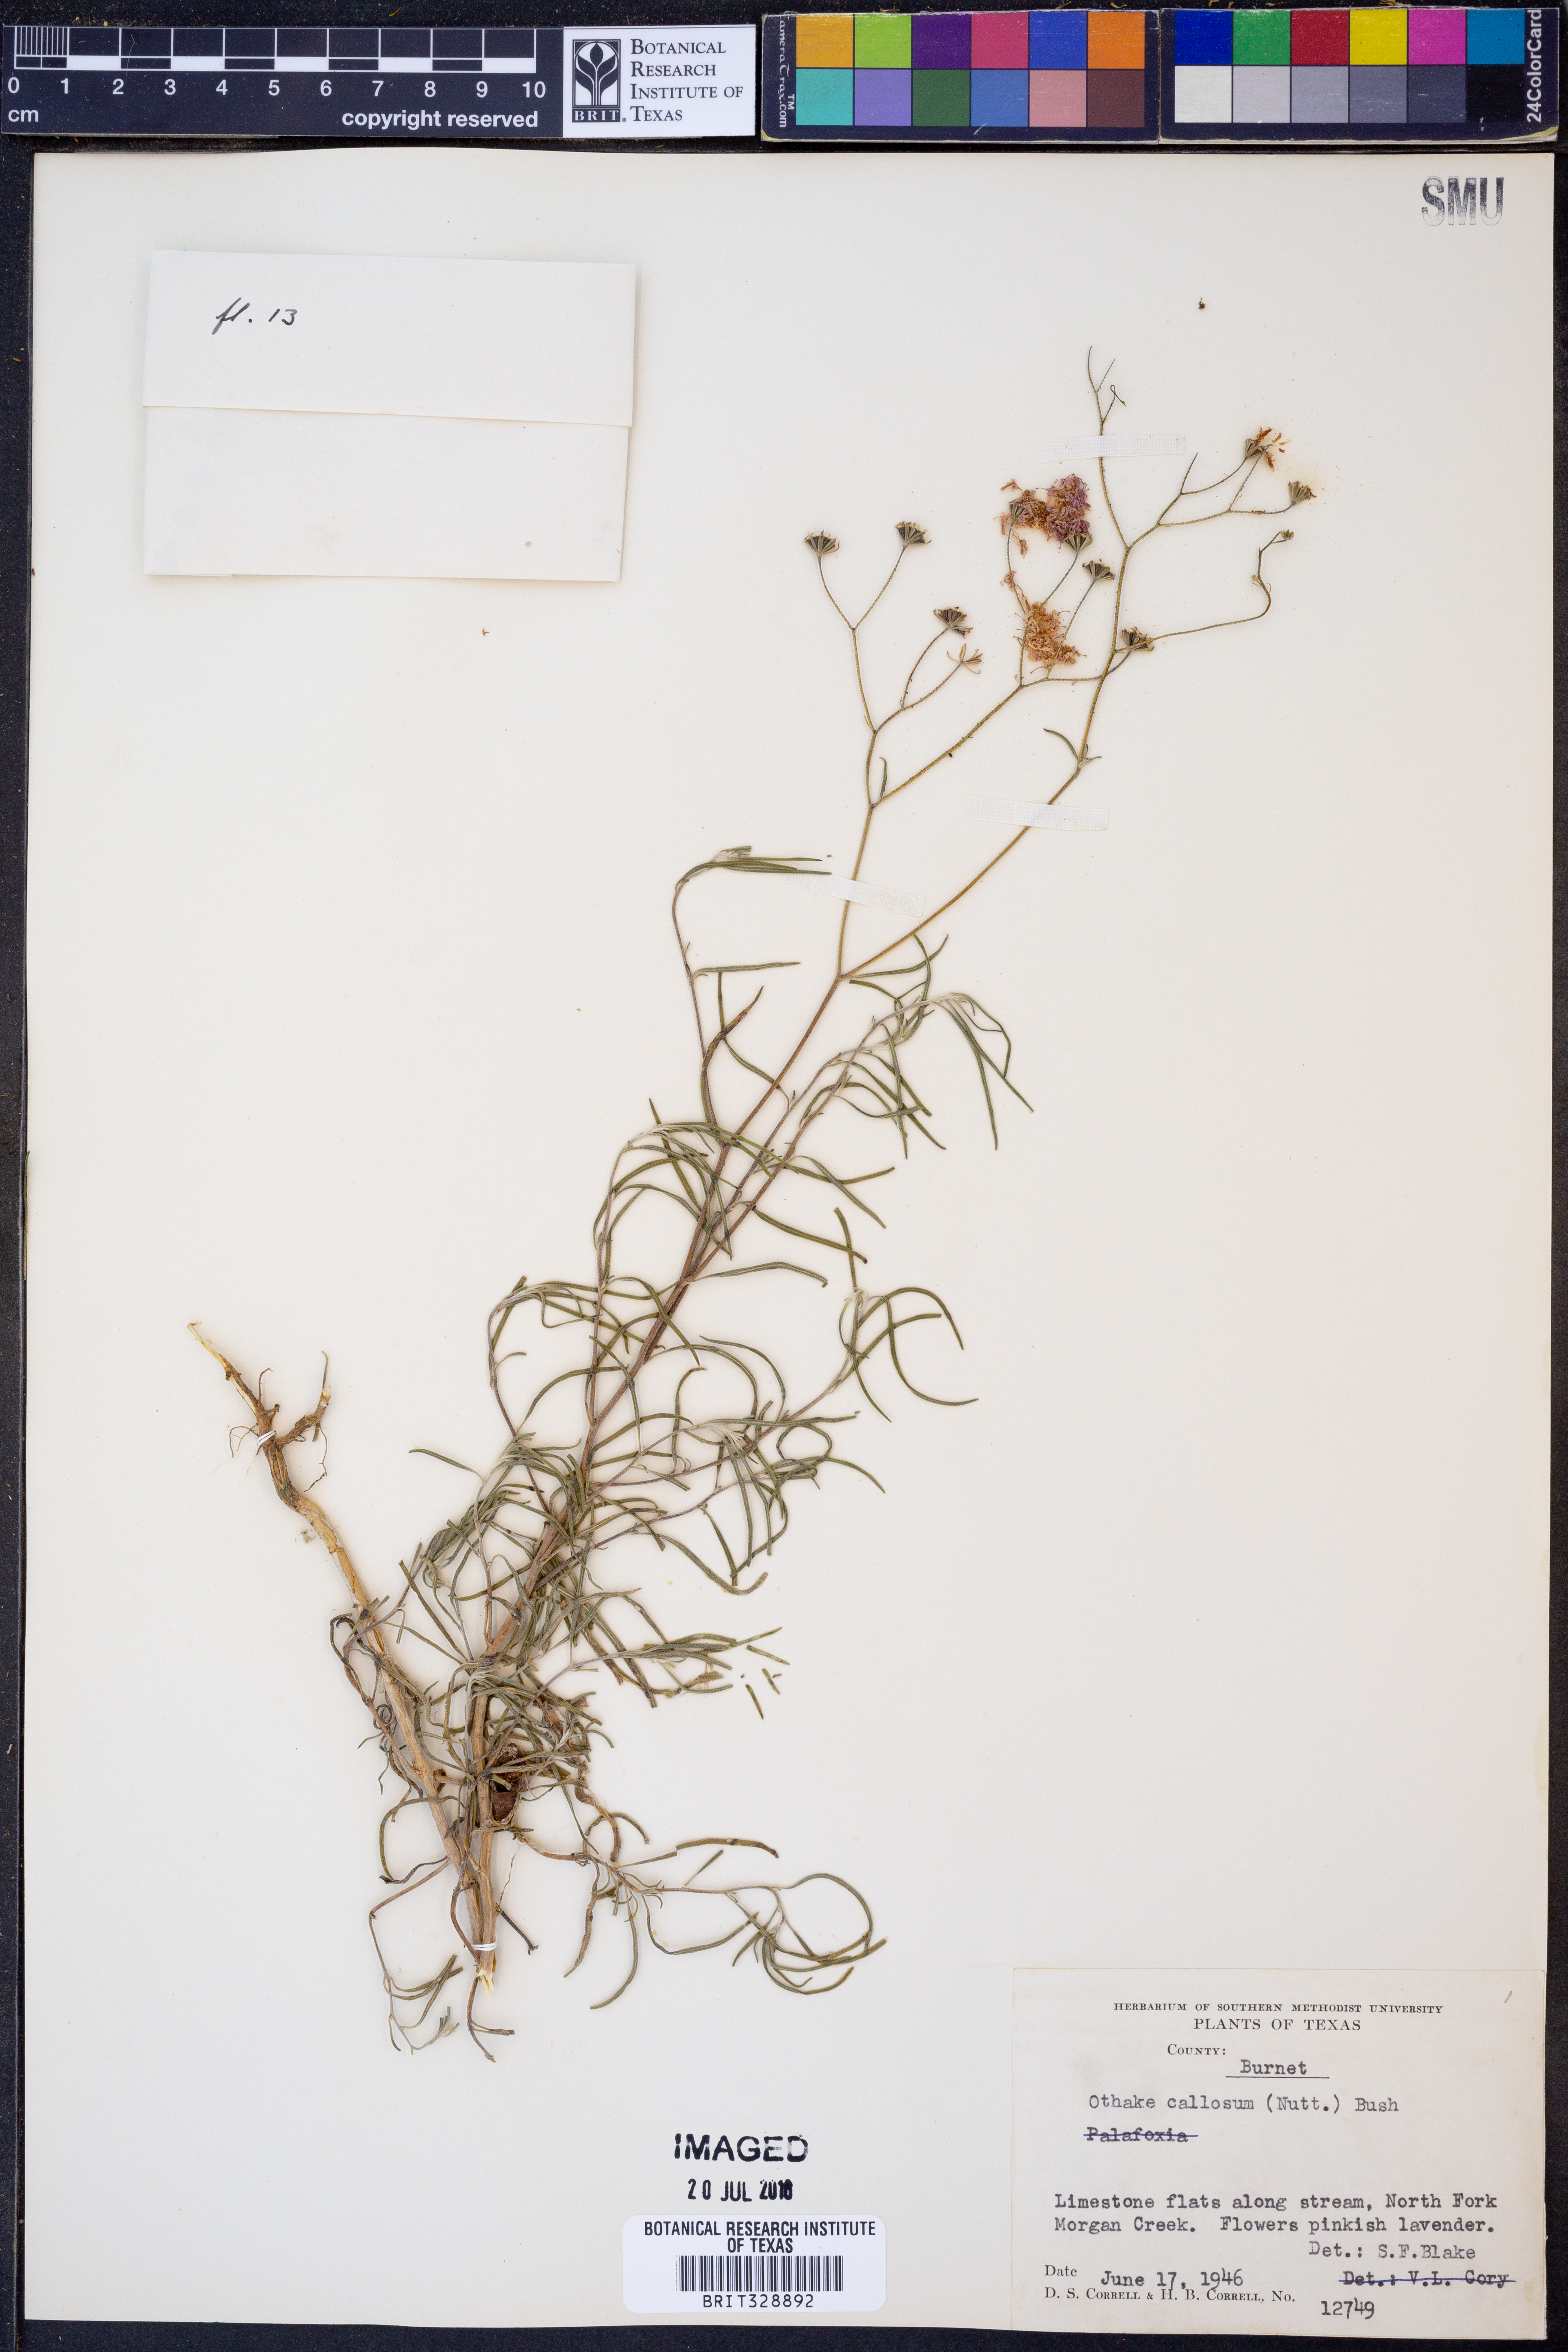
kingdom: Plantae
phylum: Tracheophyta
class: Magnoliopsida
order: Asterales
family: Asteraceae
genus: Palafoxia
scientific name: Palafoxia callosa
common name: Small palafox
